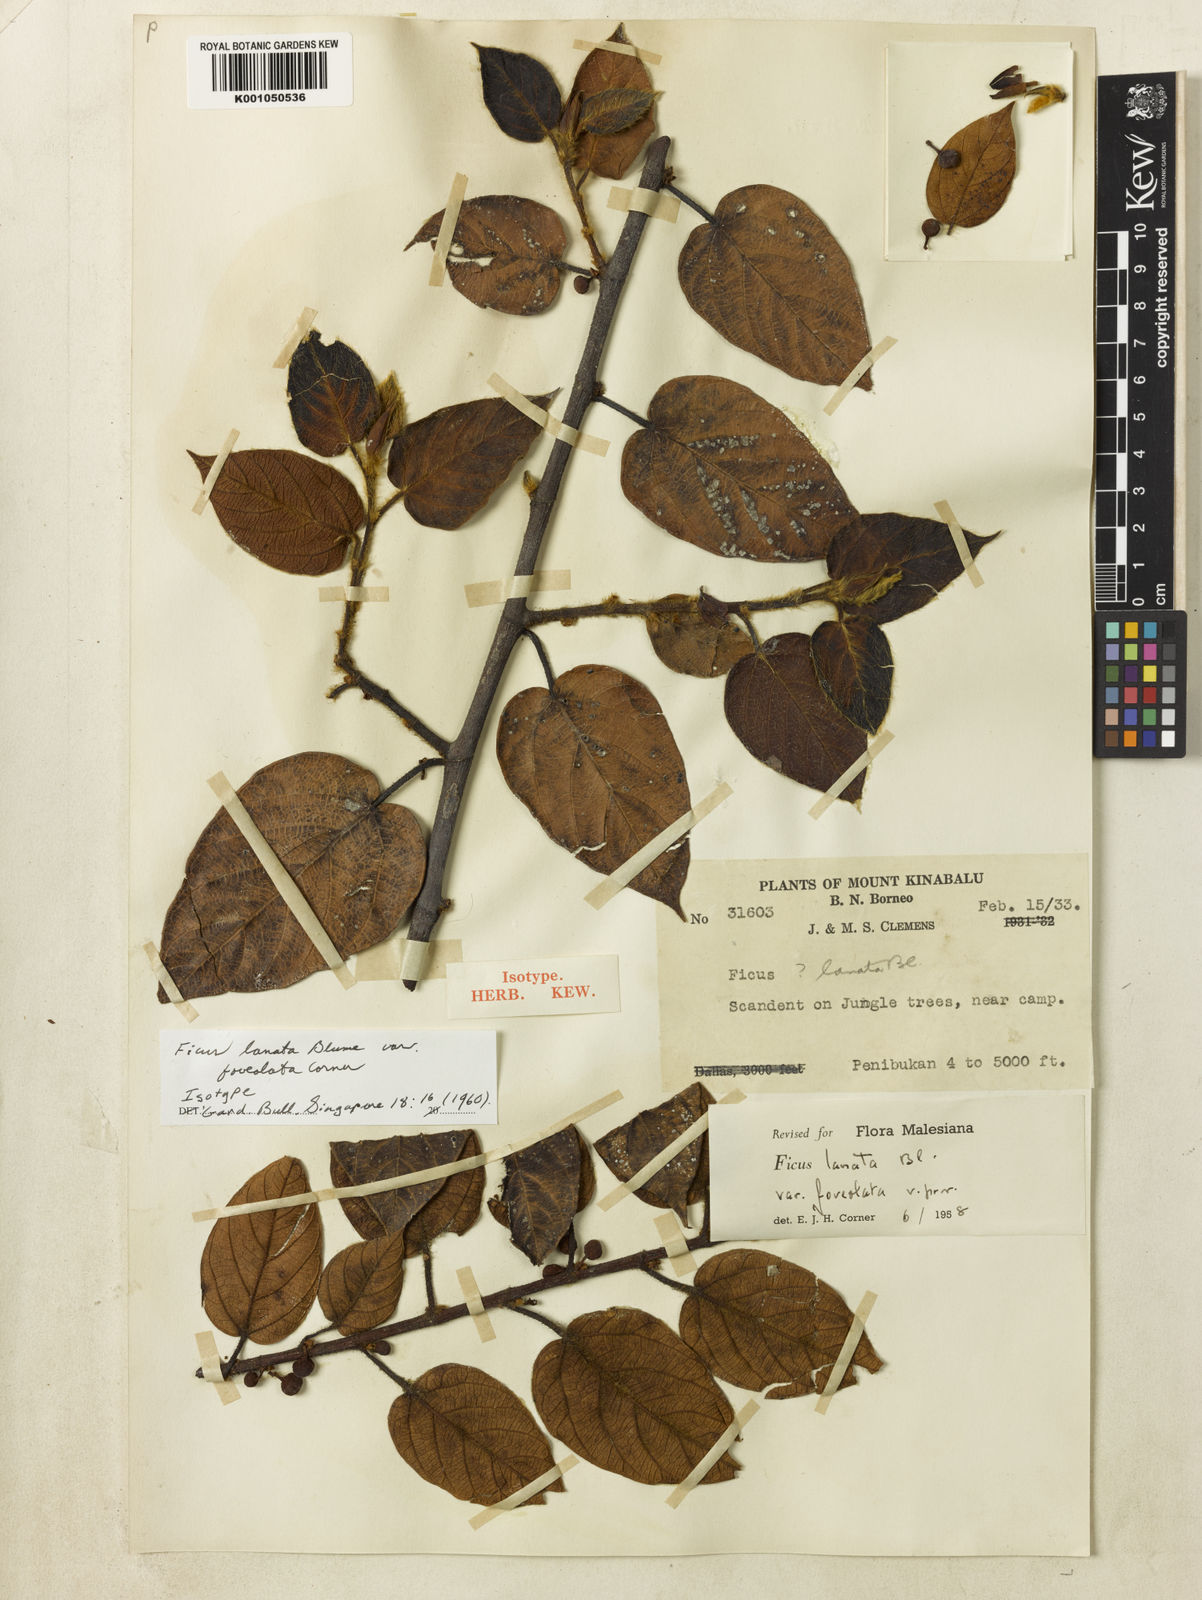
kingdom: Plantae
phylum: Tracheophyta
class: Magnoliopsida
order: Rosales
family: Moraceae
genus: Ficus
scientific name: Ficus lanata
